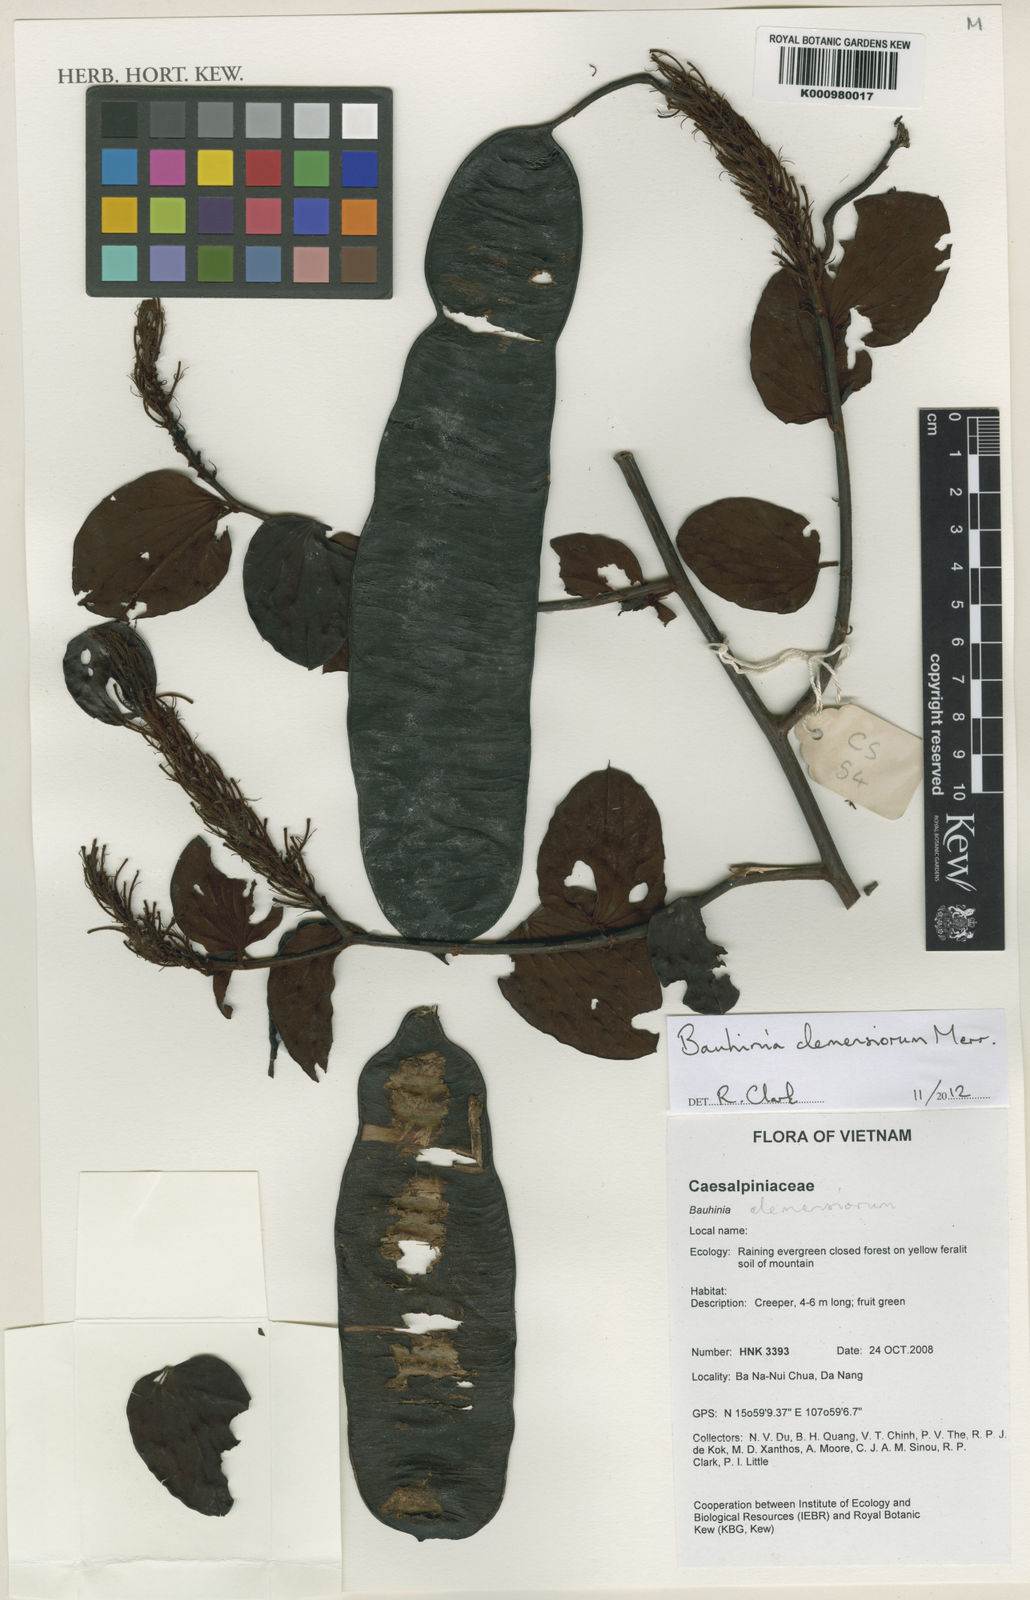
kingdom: Plantae
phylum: Tracheophyta
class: Magnoliopsida
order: Fabales
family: Fabaceae
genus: Cheniella
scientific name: Cheniella clemensiorum
